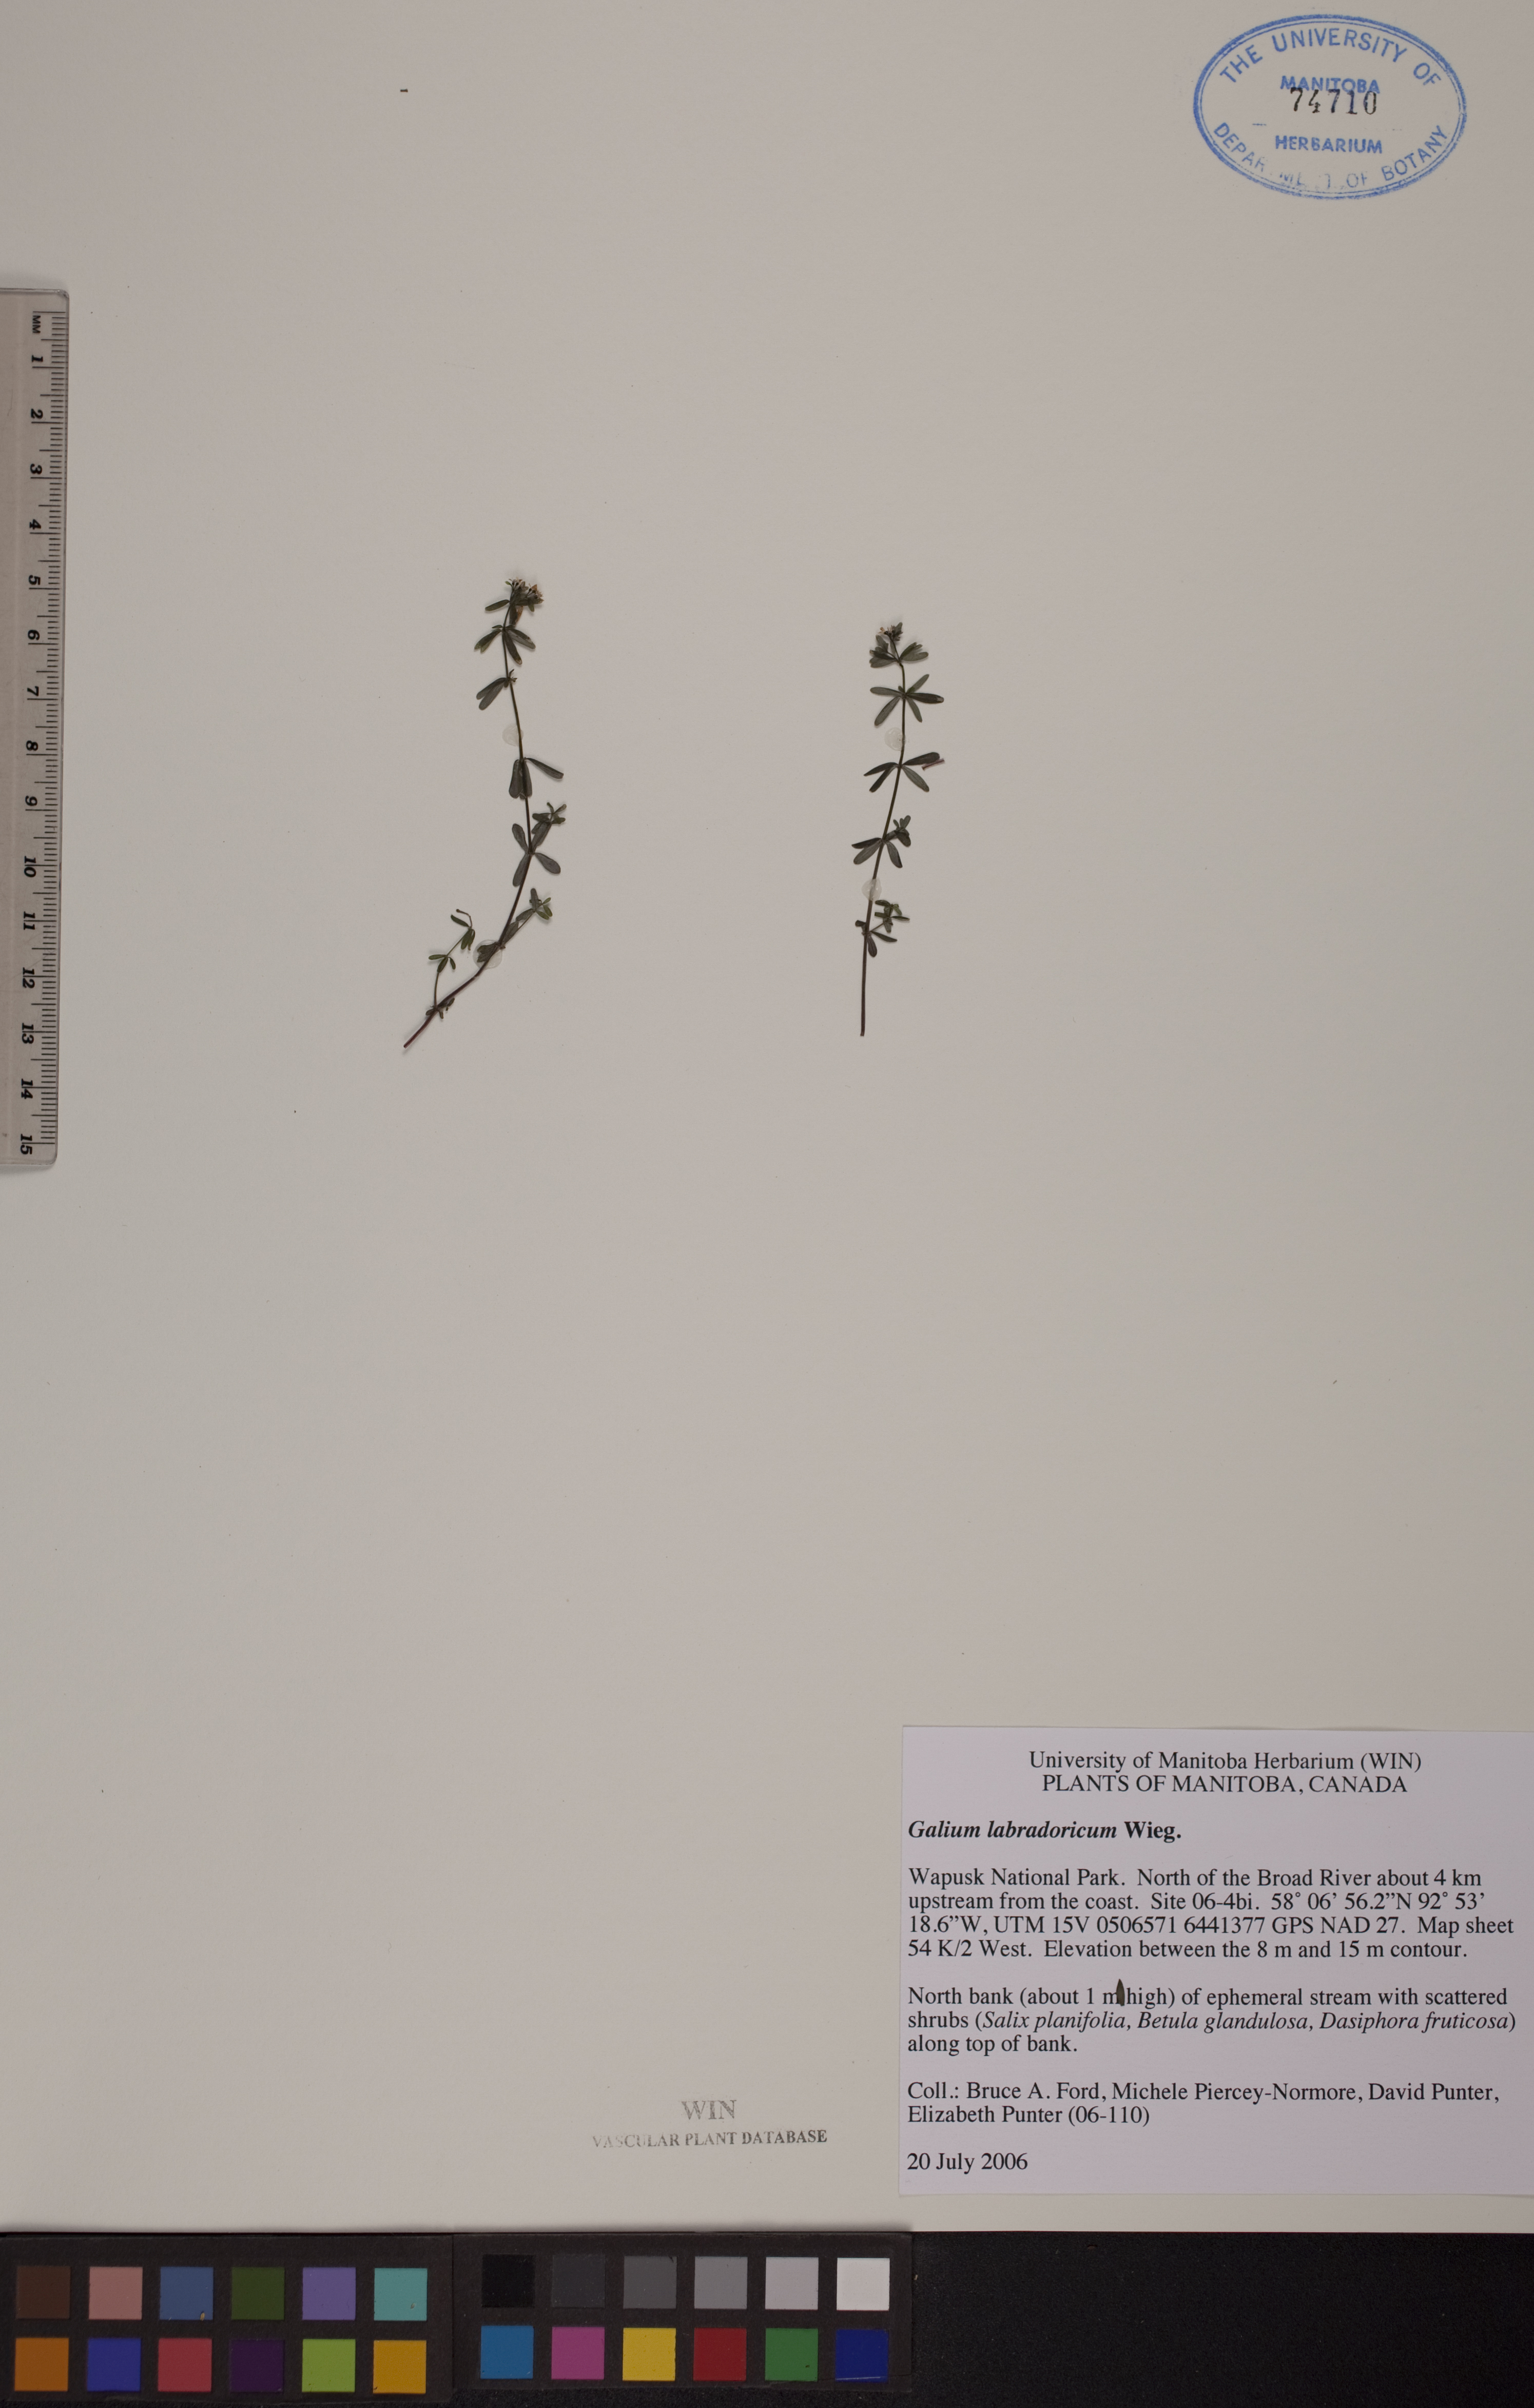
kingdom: Plantae
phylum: Tracheophyta
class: Magnoliopsida
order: Gentianales
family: Rubiaceae
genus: Galium
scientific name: Galium labradoricum
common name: Labrador bedstraw
